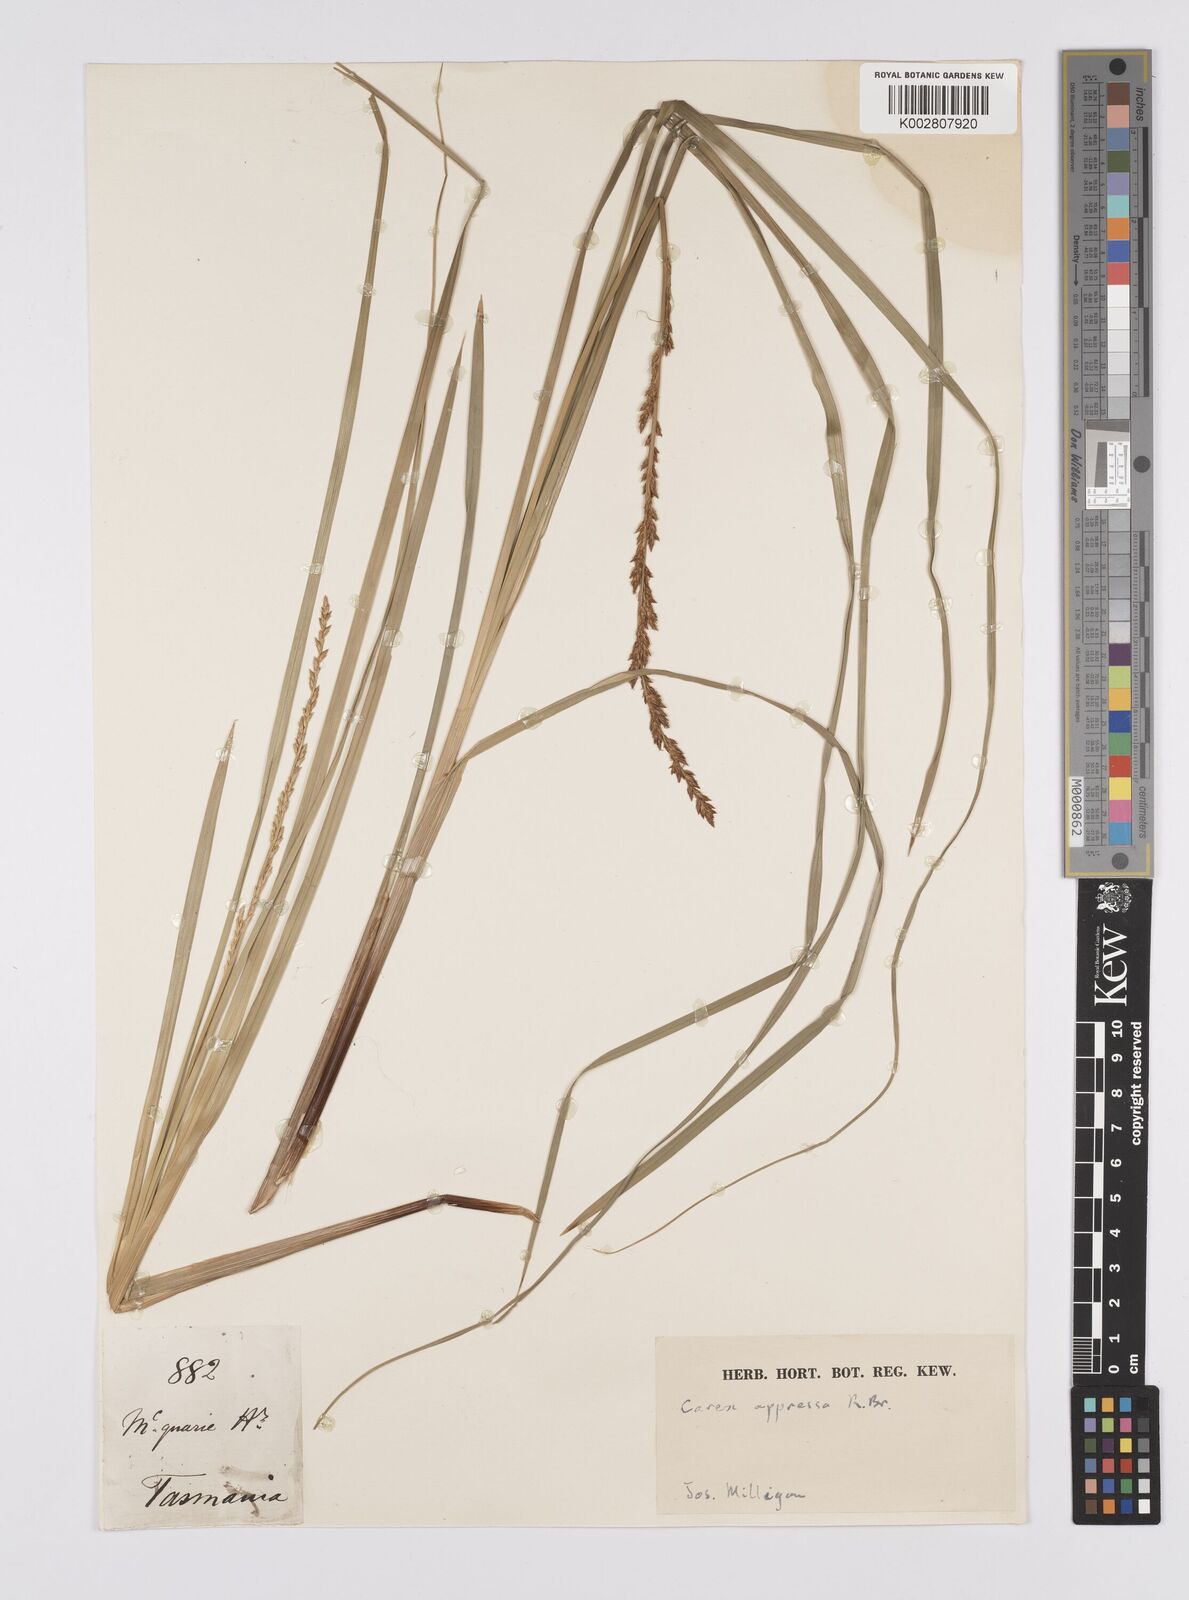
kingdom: Plantae
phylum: Tracheophyta
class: Liliopsida
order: Poales
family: Cyperaceae
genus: Carex
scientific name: Carex appressa
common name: Tussock sedge
